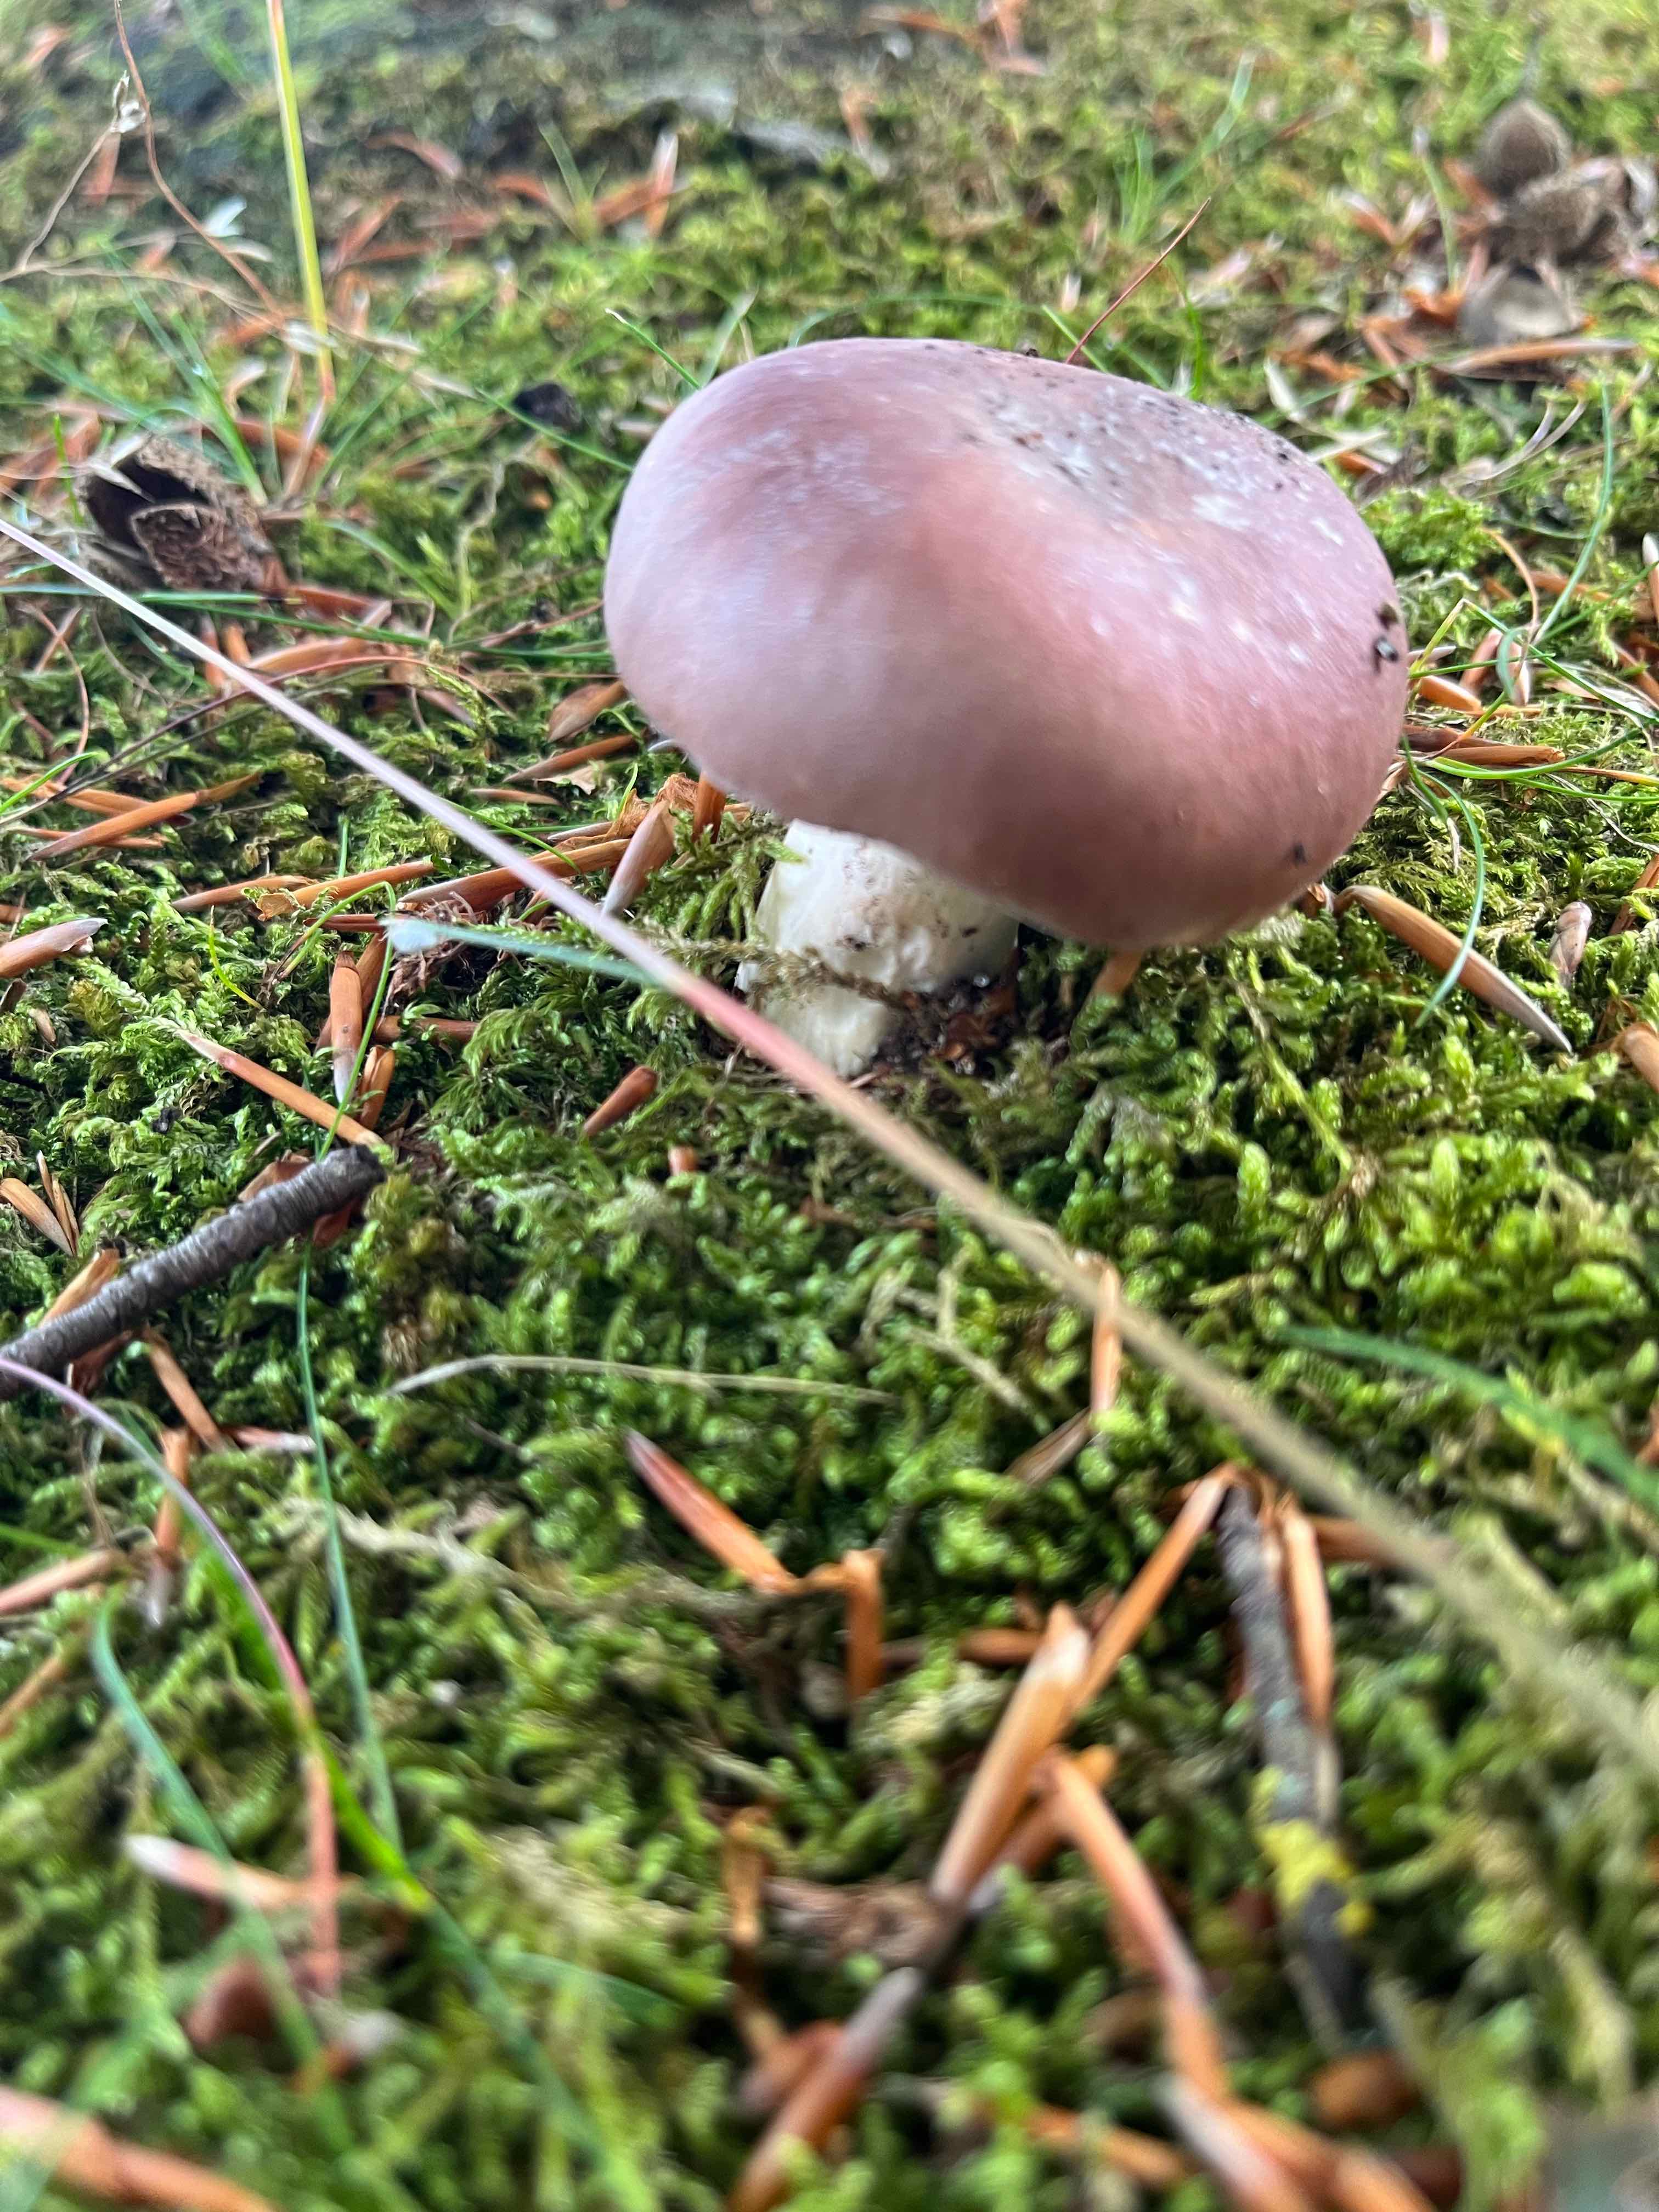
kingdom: Fungi
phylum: Basidiomycota
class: Agaricomycetes
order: Russulales
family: Russulaceae
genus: Russula
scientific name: Russula vesca
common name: spiselig skørhat
